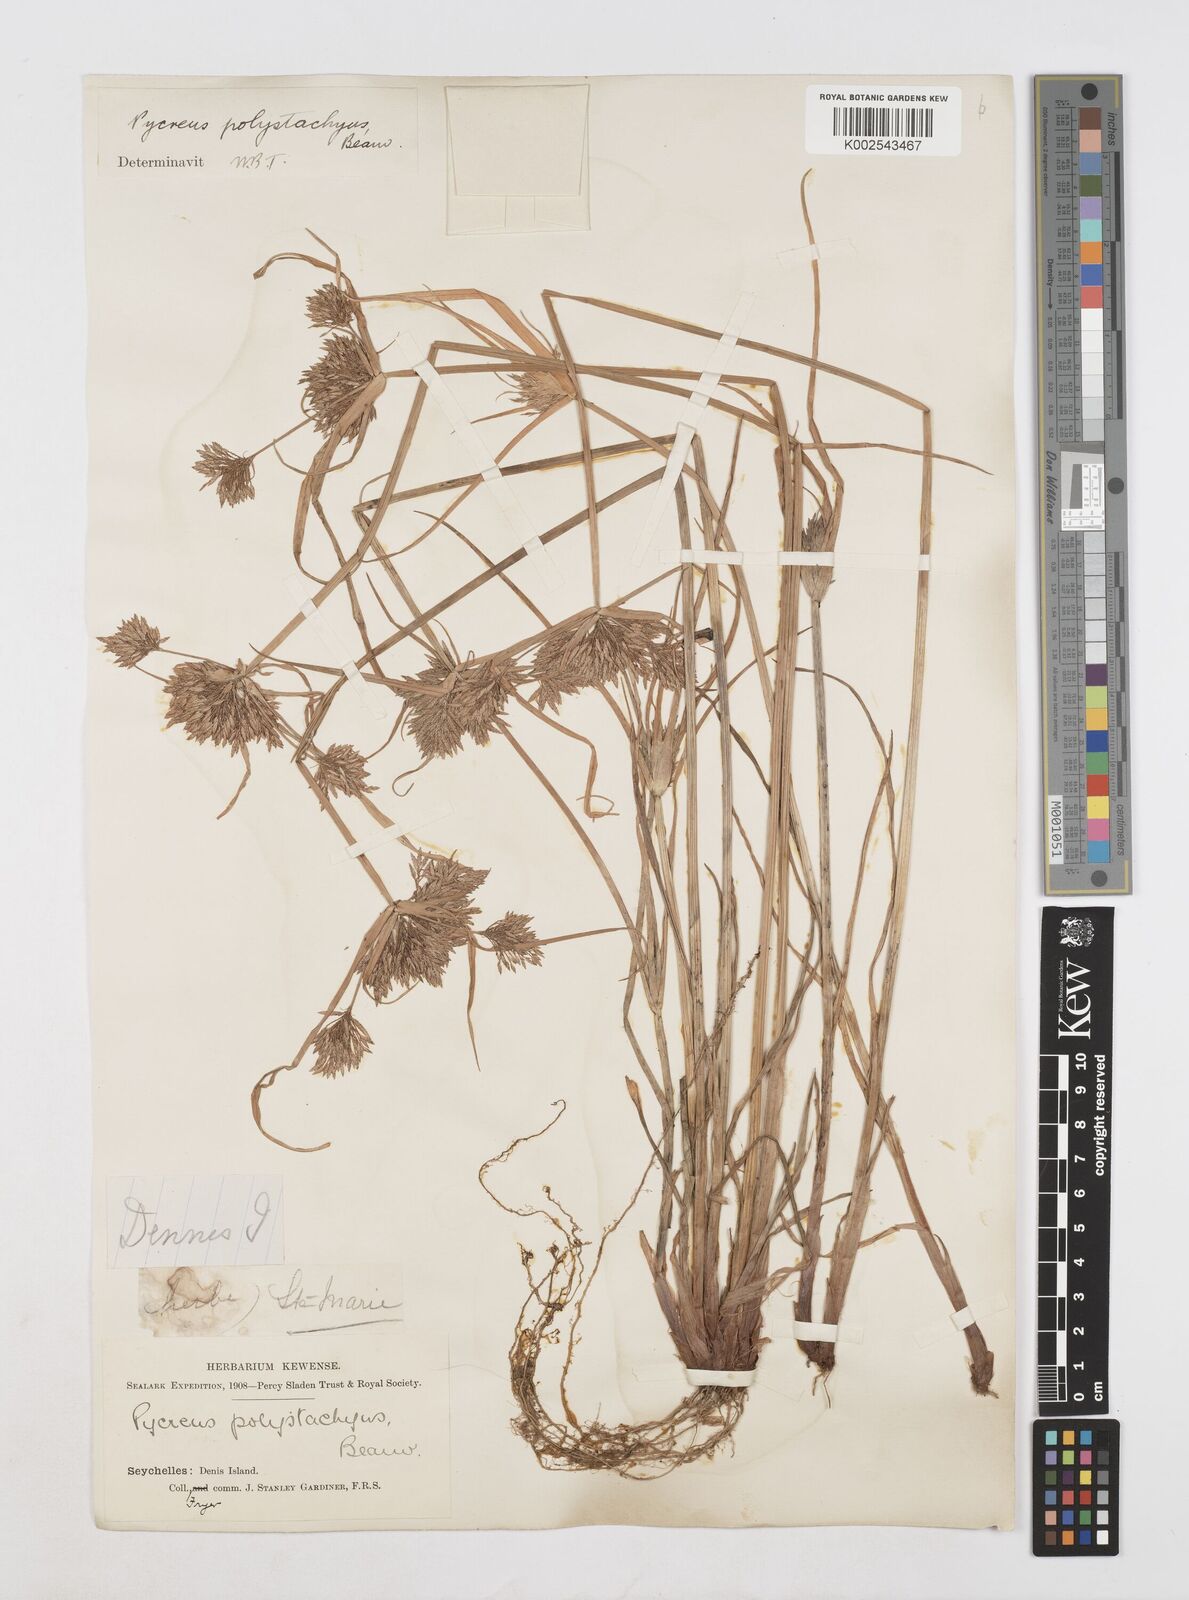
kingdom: Plantae
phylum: Tracheophyta
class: Liliopsida
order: Poales
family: Cyperaceae
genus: Cyperus
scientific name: Cyperus polystachyos
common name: Bunchy flat sedge
